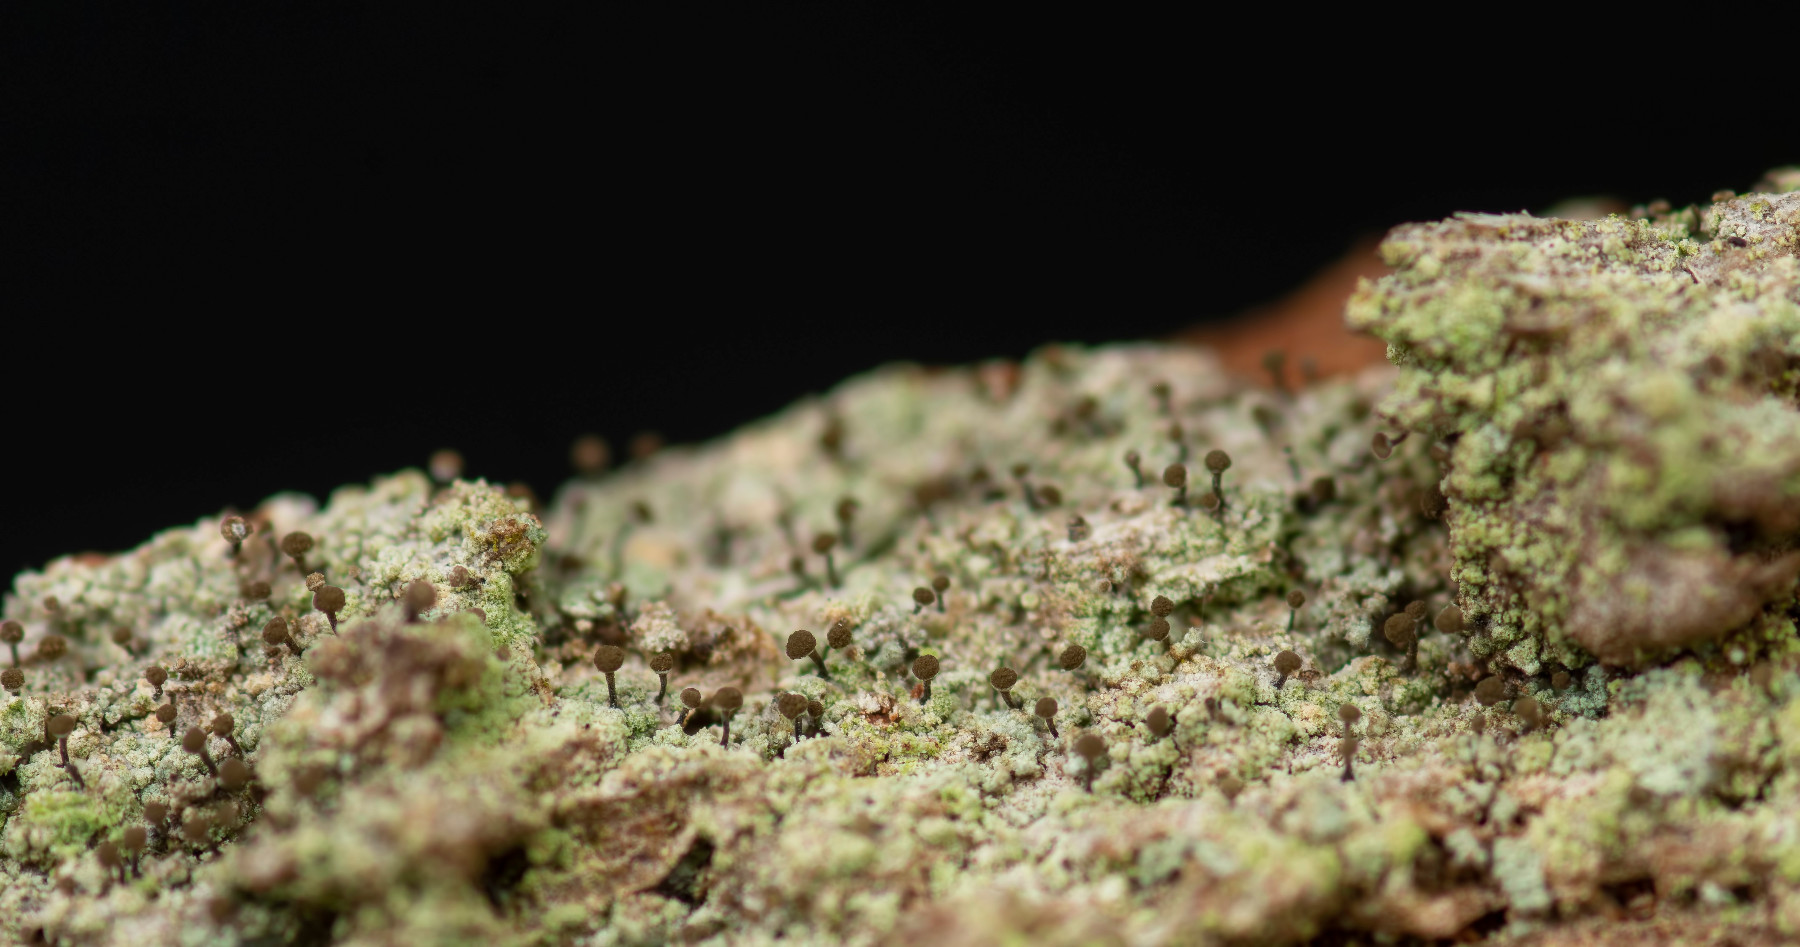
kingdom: Fungi
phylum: Ascomycota
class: Coniocybomycetes
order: Coniocybales
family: Coniocybaceae
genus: Chaenotheca
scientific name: Chaenotheca stemonea
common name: melet knappenålslav
